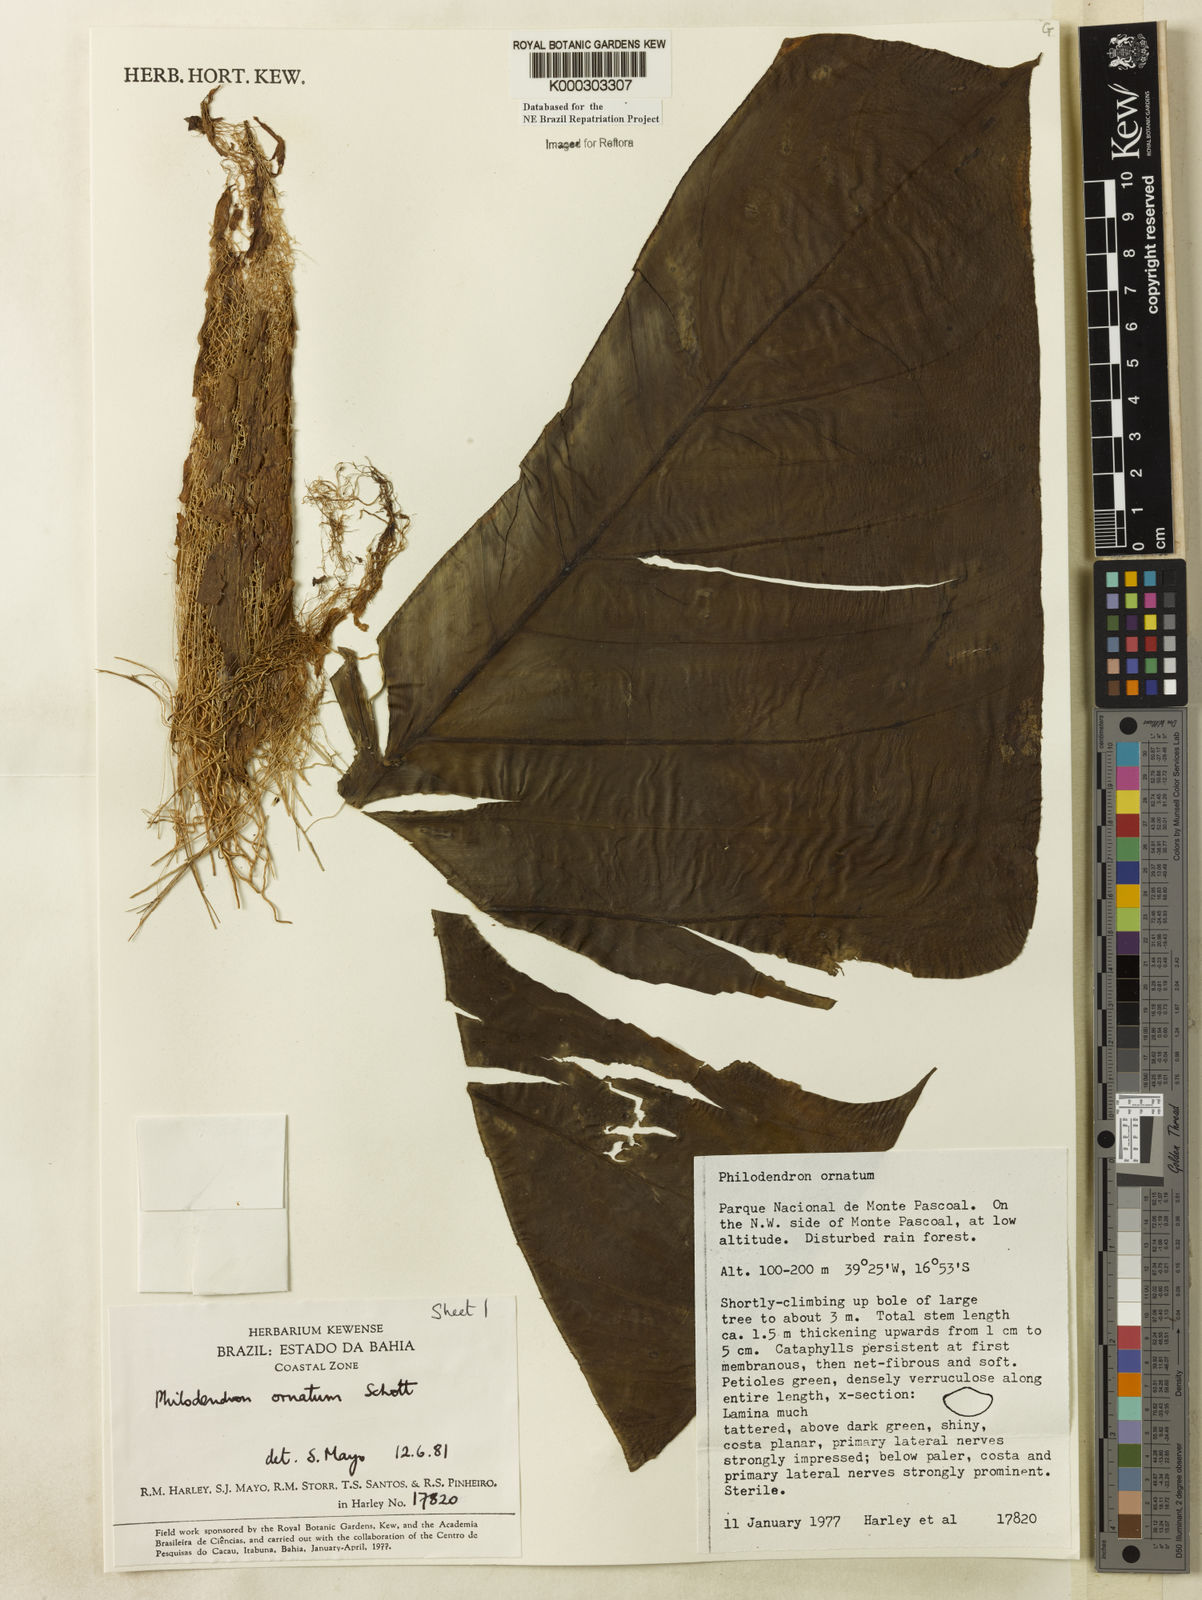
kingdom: Plantae
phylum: Tracheophyta
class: Liliopsida
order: Alismatales
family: Araceae
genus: Philodendron
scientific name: Philodendron ornatum
